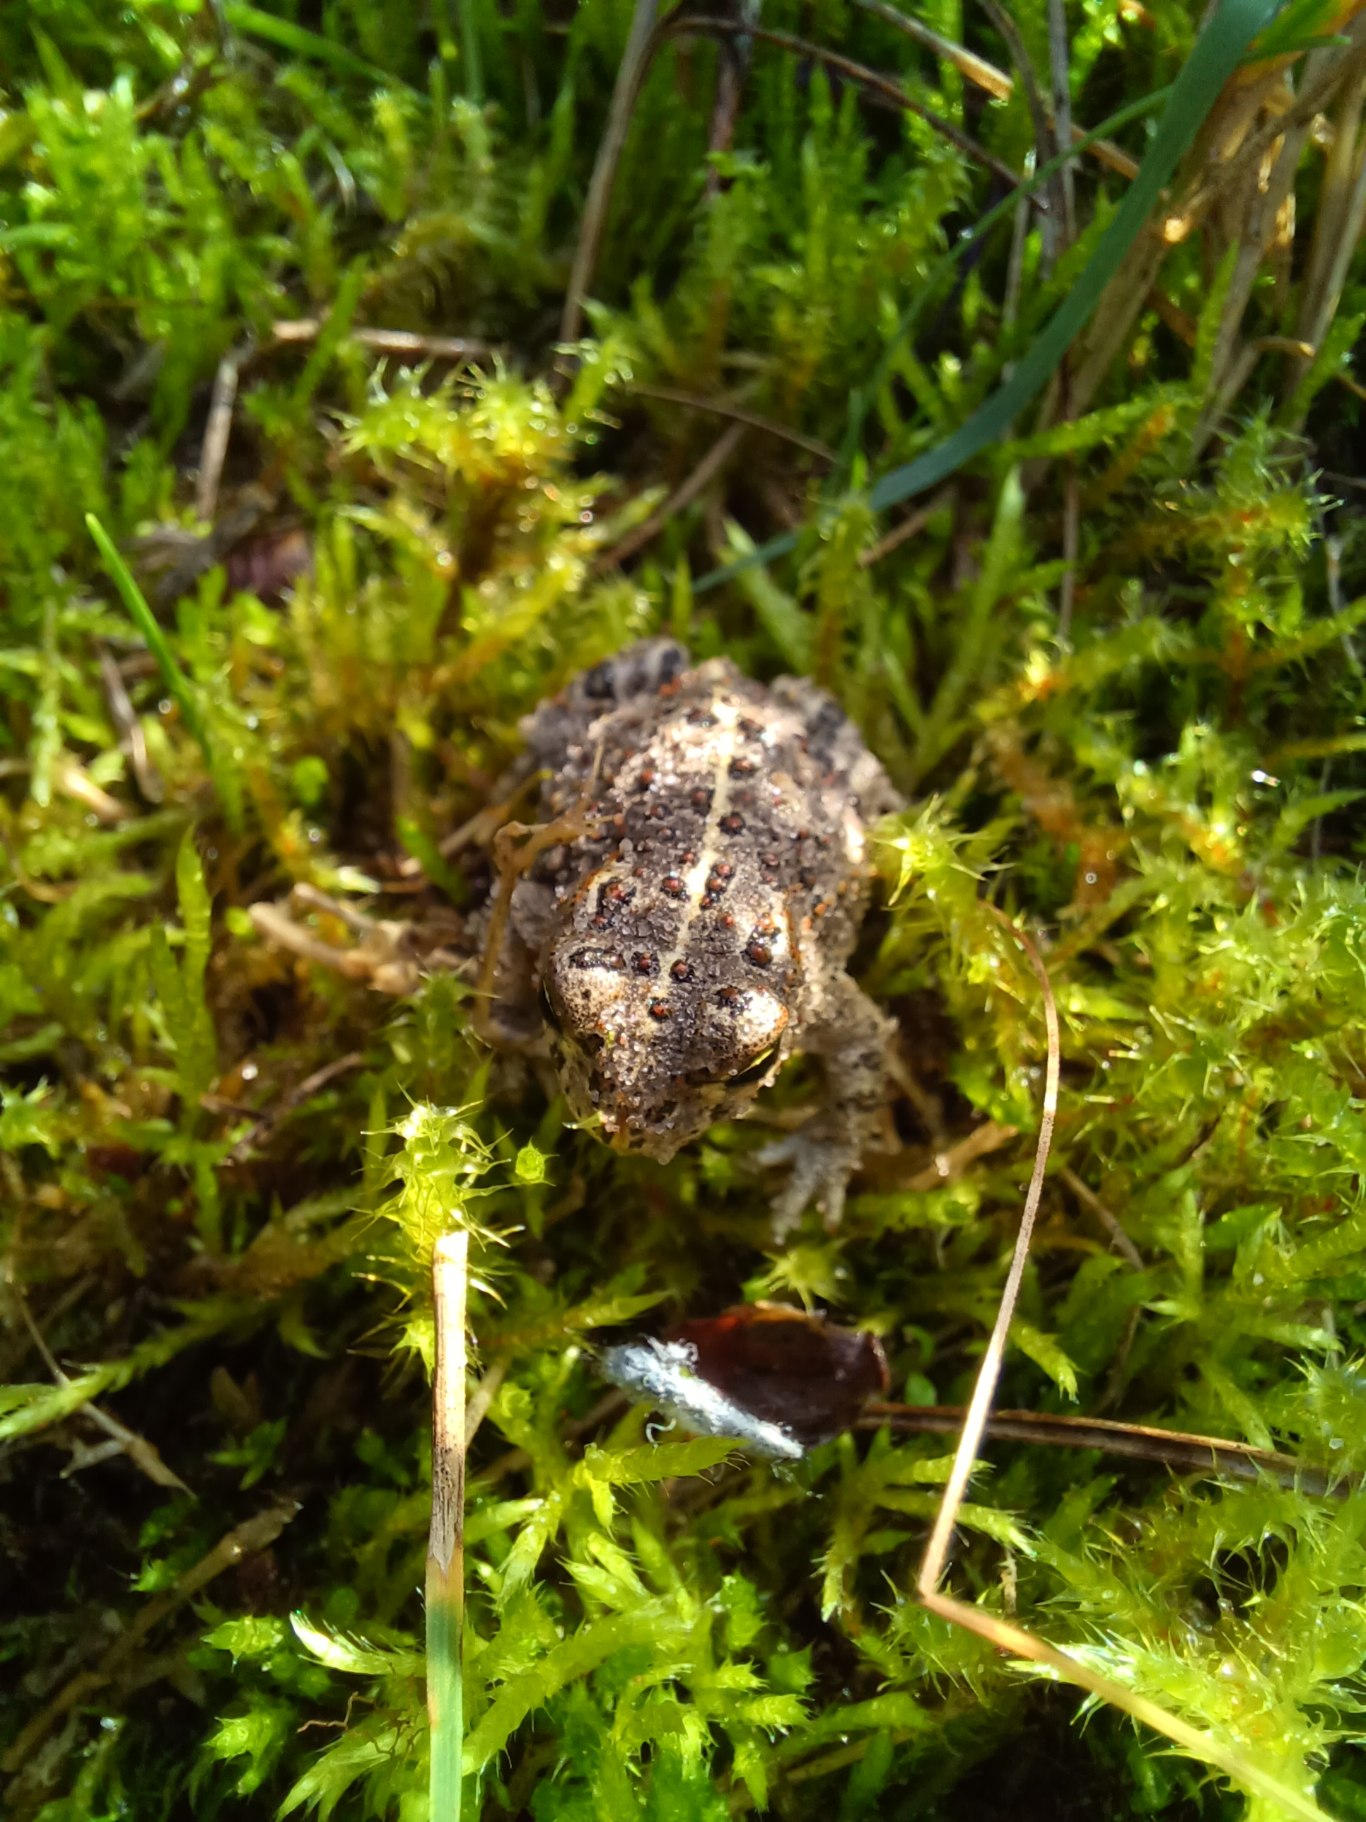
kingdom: Animalia
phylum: Chordata
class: Amphibia
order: Anura
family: Bufonidae
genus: Epidalea
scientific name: Epidalea calamita
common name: Strandtudse
